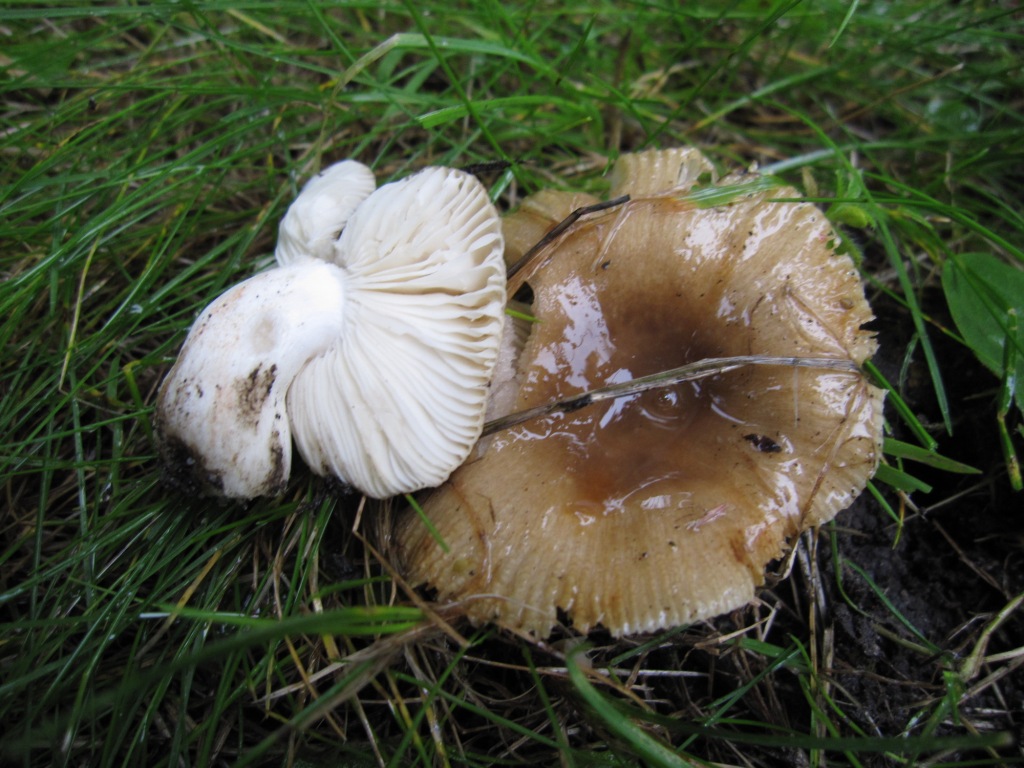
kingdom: Fungi
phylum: Basidiomycota
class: Agaricomycetes
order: Russulales
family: Russulaceae
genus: Russula
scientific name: Russula recondita
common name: mild kam-skørhat
